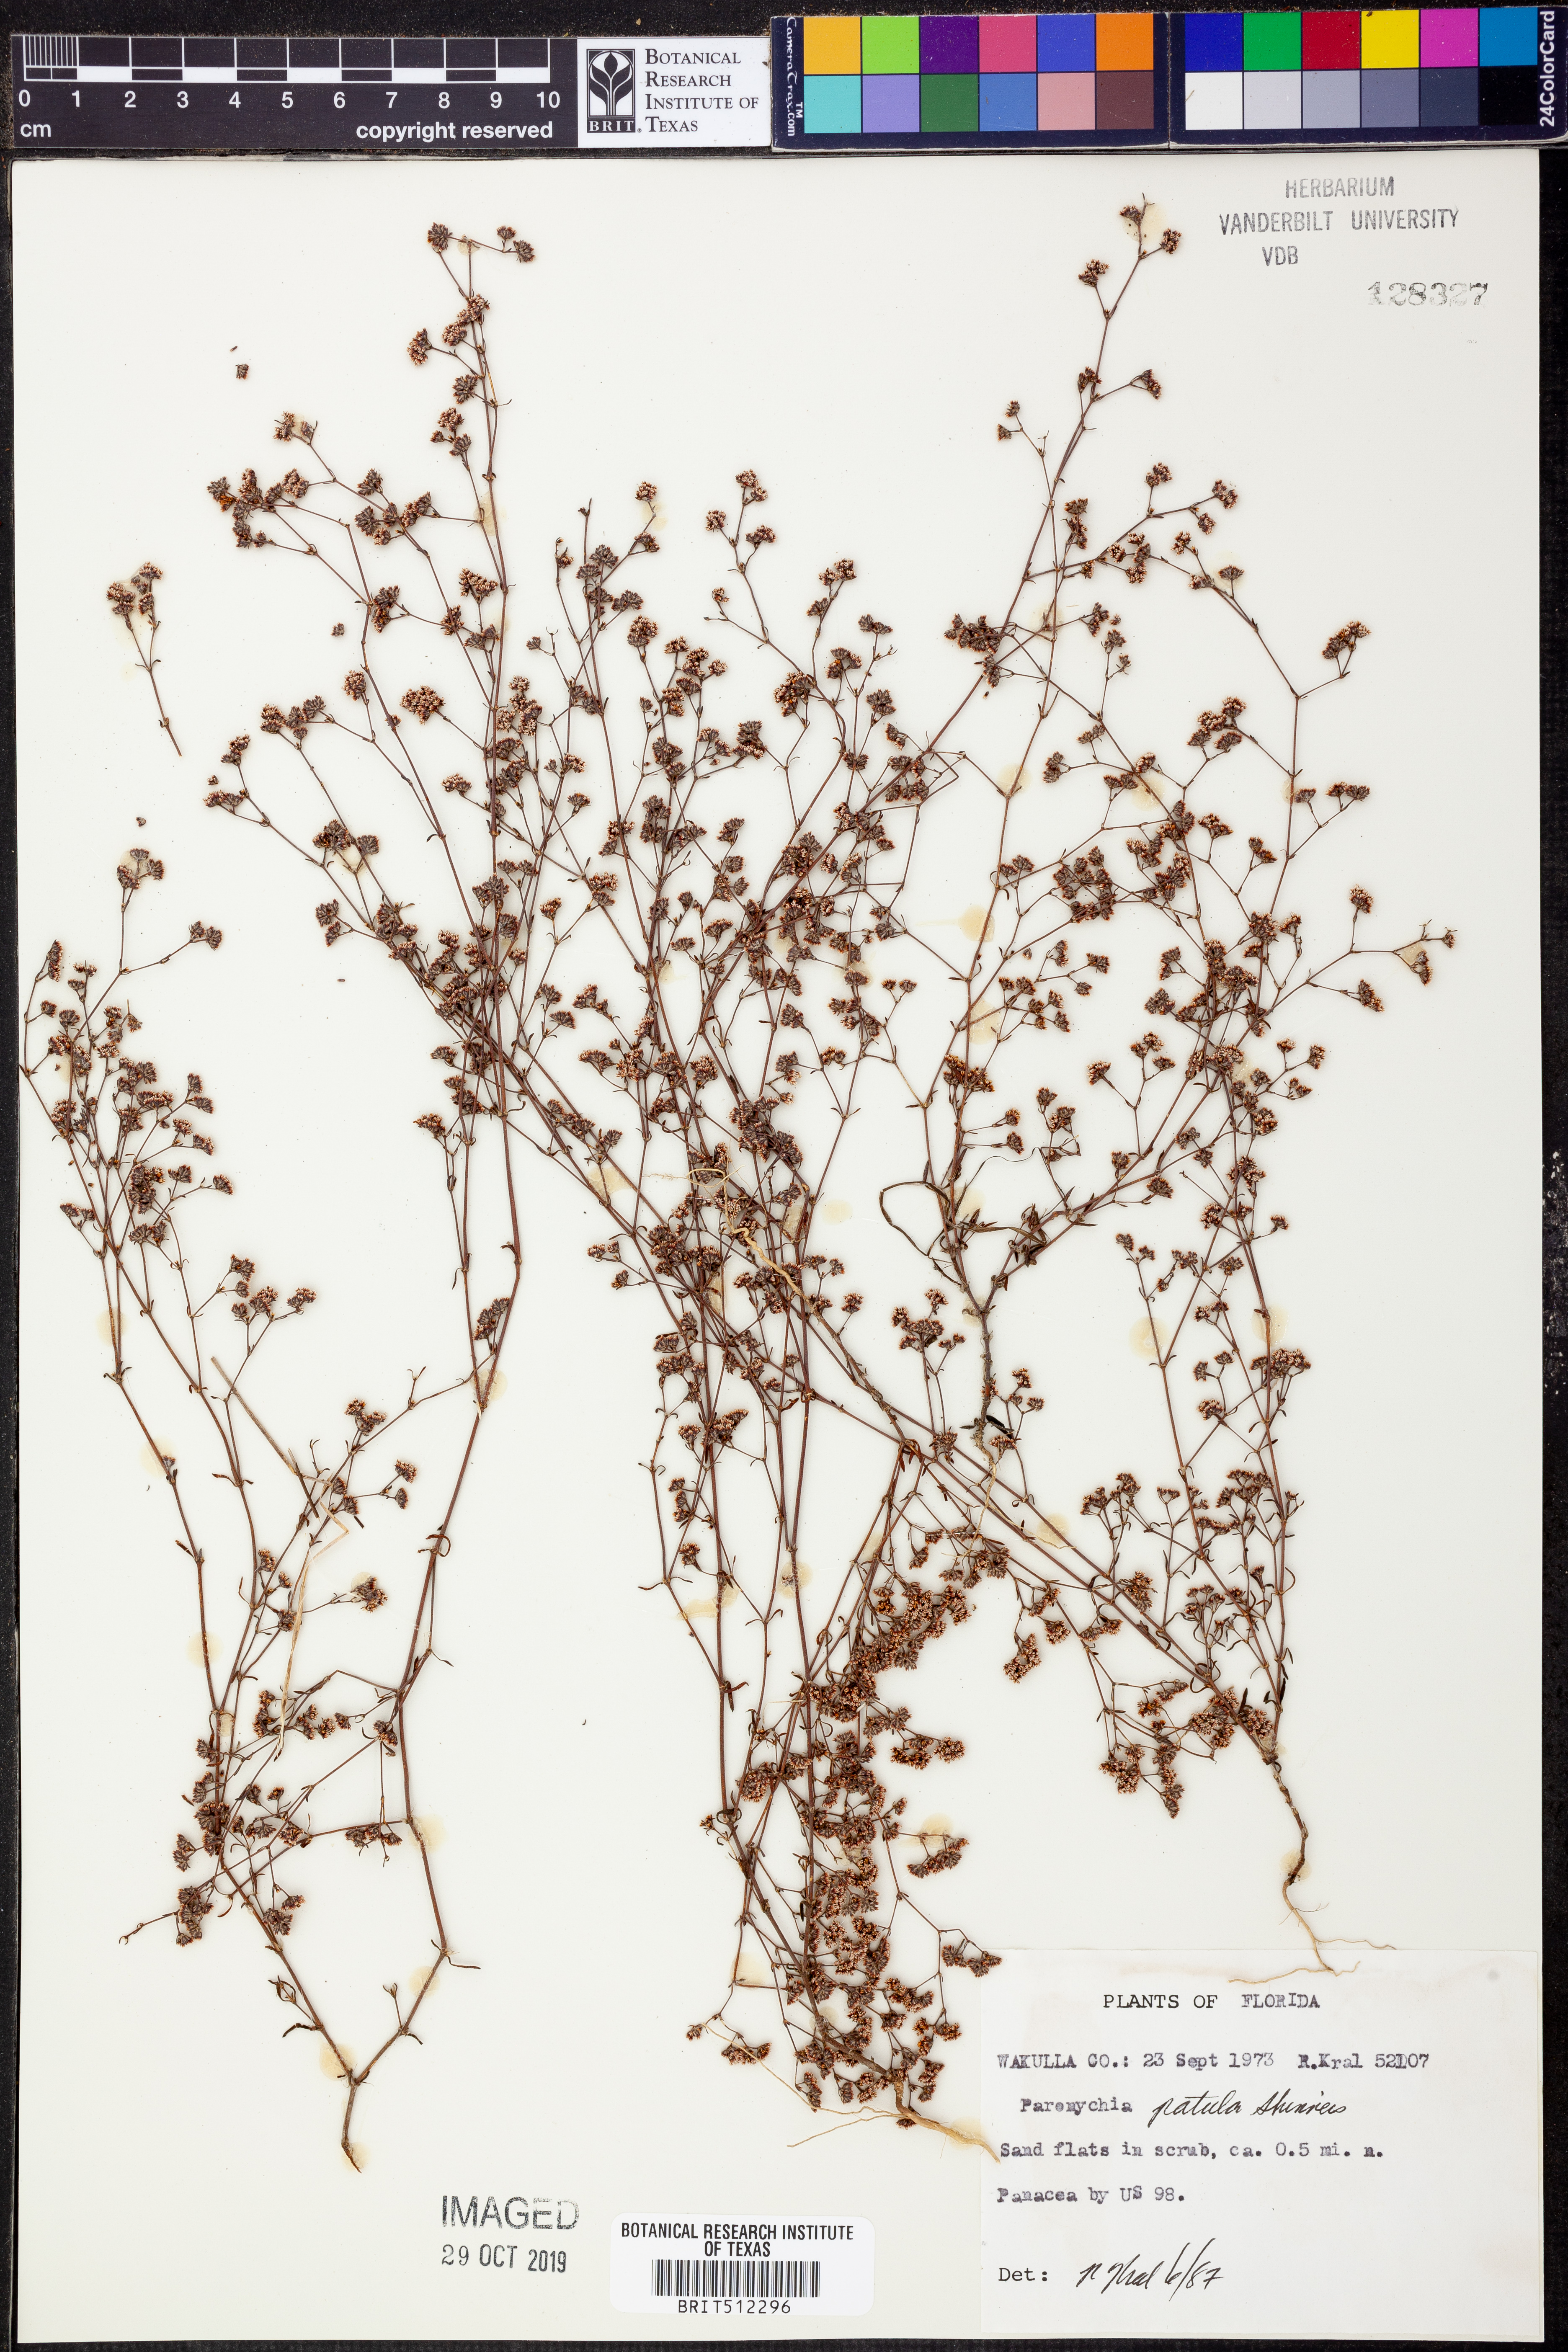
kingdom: Plantae
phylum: Tracheophyta
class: Magnoliopsida
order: Caryophyllales
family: Caryophyllaceae
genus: Paronychia
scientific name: Paronychia patula
